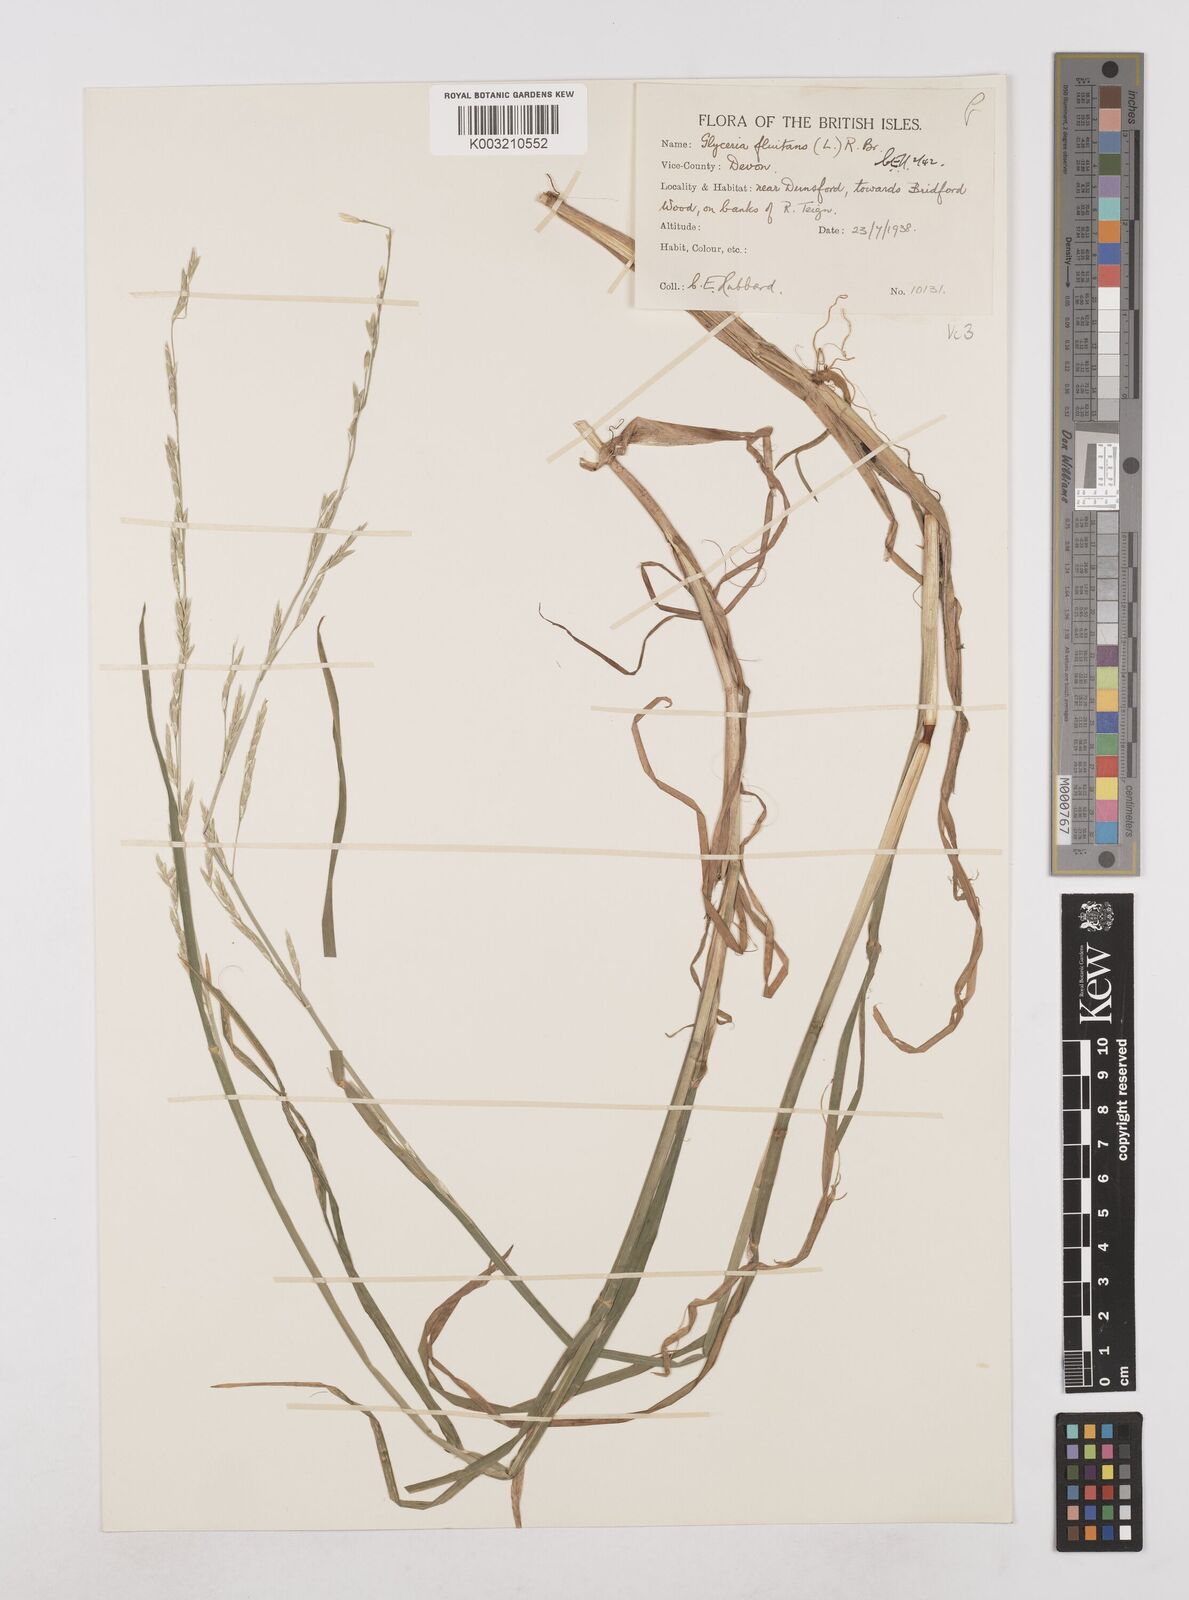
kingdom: Plantae
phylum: Tracheophyta
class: Liliopsida
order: Poales
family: Poaceae
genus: Glyceria
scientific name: Glyceria fluitans
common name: Floating sweet-grass
